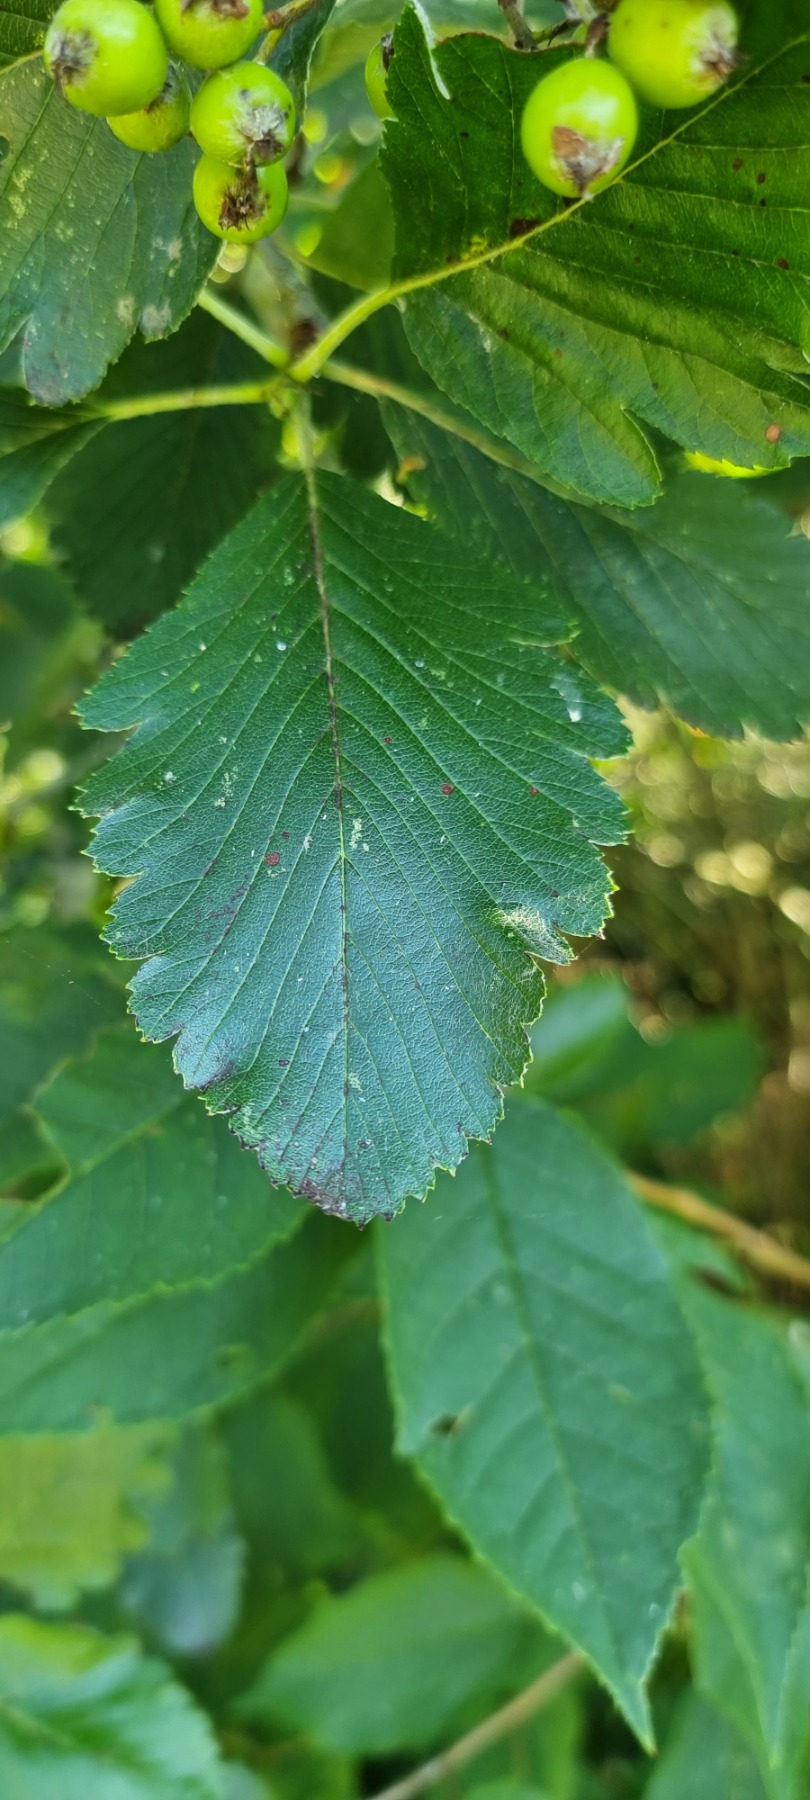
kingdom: Plantae
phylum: Tracheophyta
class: Magnoliopsida
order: Rosales
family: Rosaceae
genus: Hedlundia
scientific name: Hedlundia mougeotii
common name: Pyrenæisk røn
